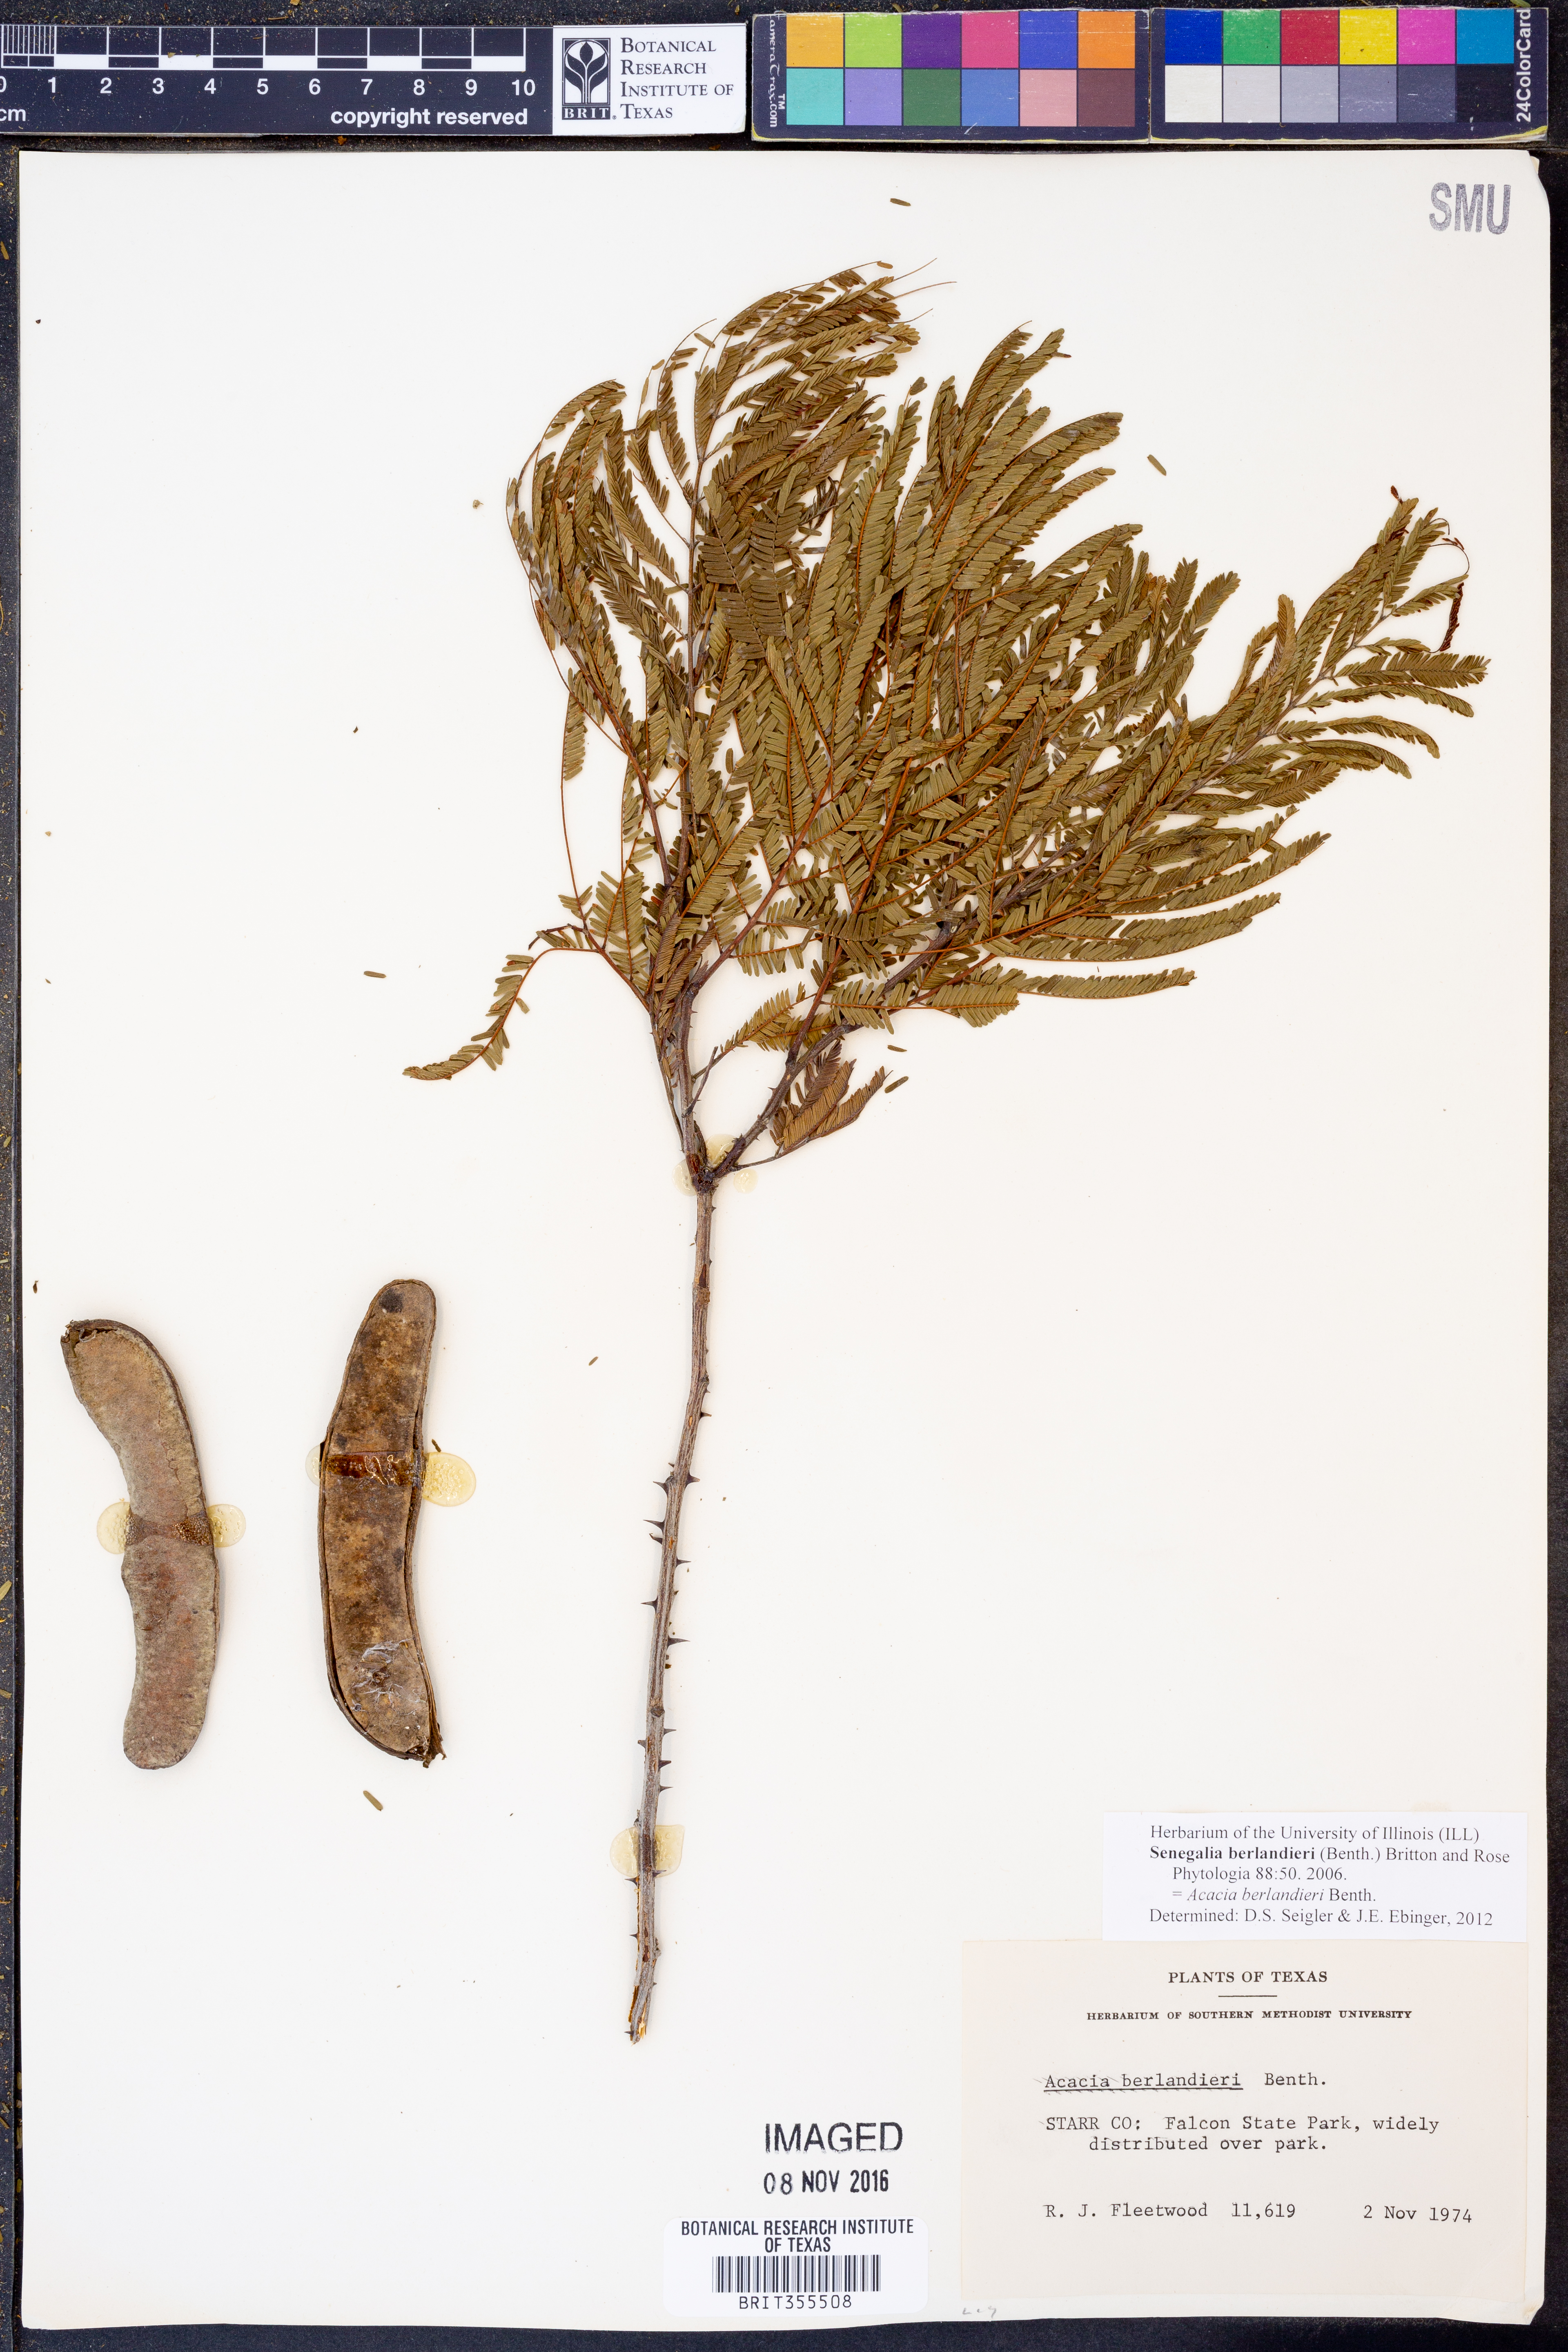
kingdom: Plantae
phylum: Tracheophyta
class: Magnoliopsida
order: Fabales
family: Fabaceae
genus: Senegalia
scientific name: Senegalia berlandieri
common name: Berlandier acacia
